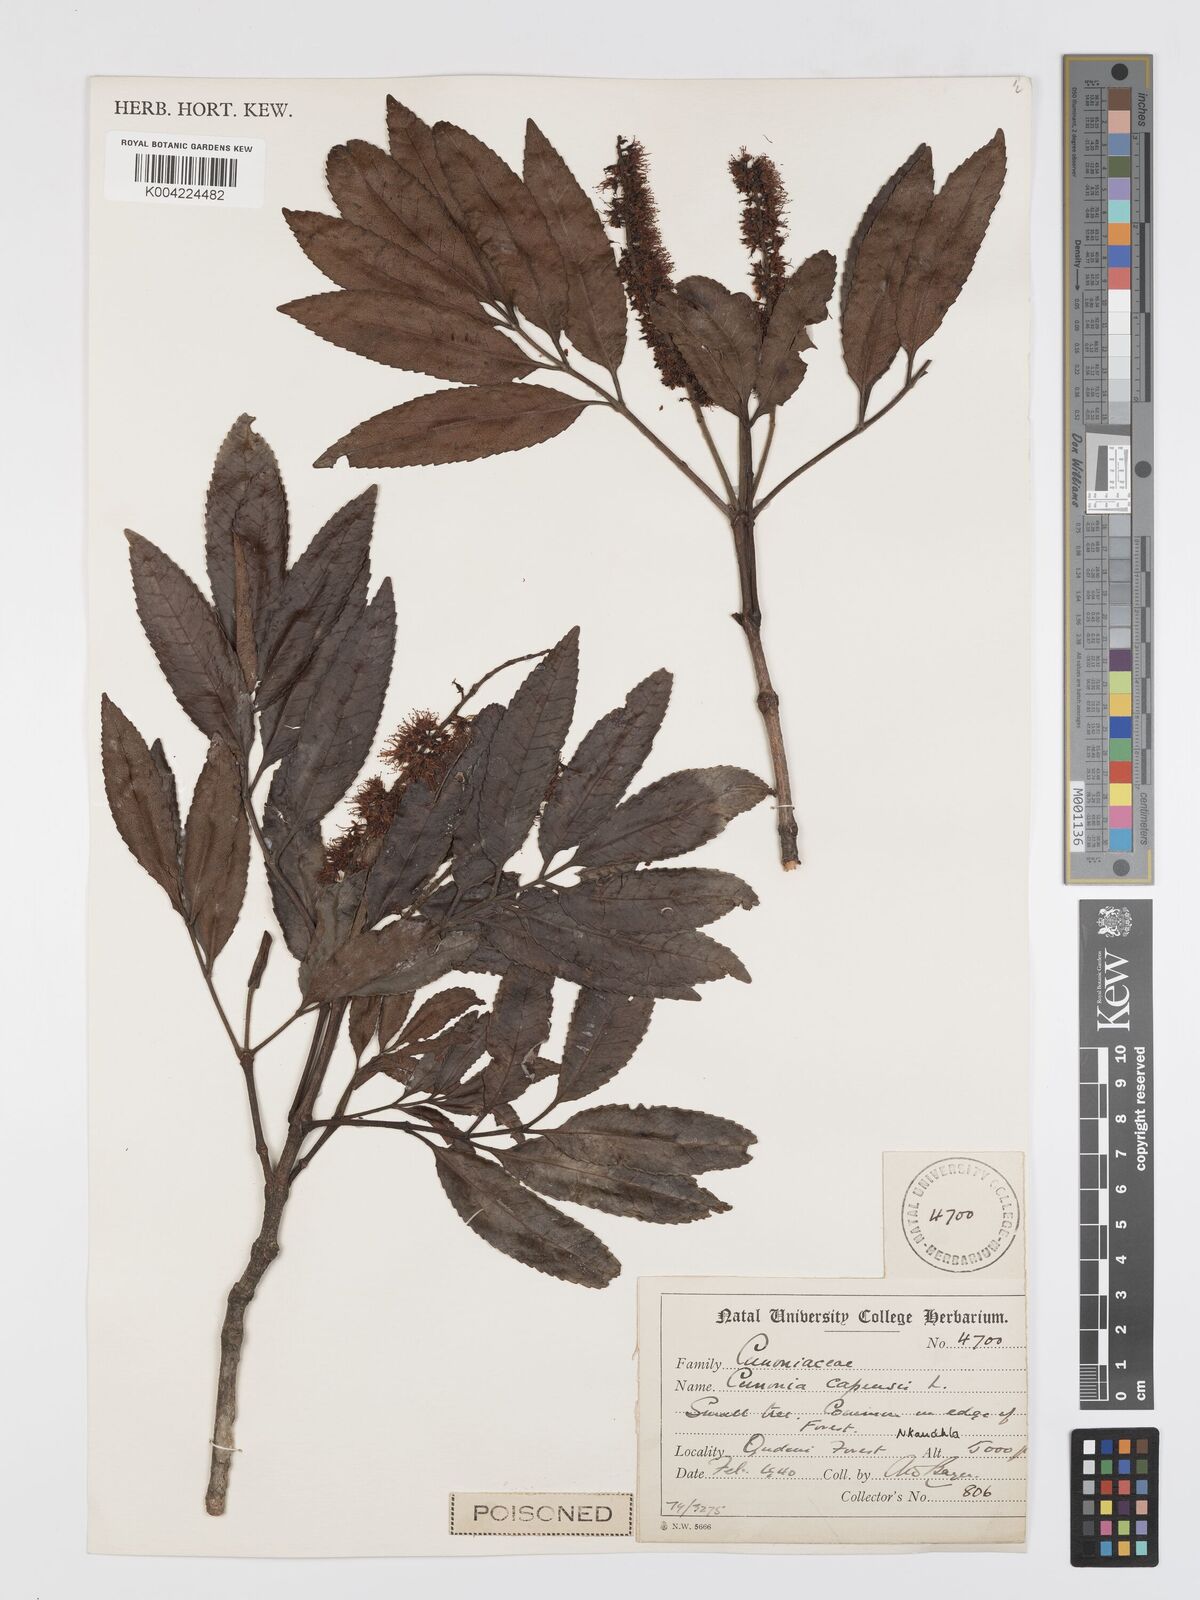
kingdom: Plantae
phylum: Tracheophyta
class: Magnoliopsida
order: Oxalidales
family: Cunoniaceae
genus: Cunonia
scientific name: Cunonia capensis
